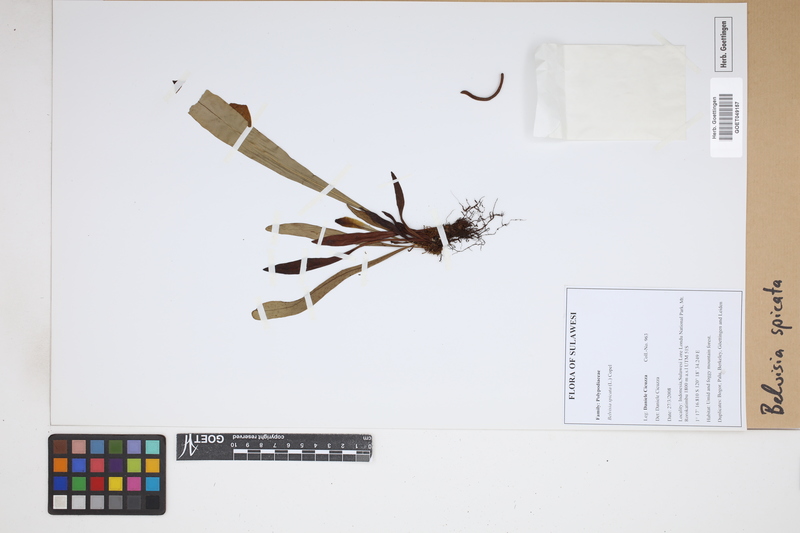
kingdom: Plantae
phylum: Tracheophyta
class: Polypodiopsida
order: Polypodiales
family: Polypodiaceae
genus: Lepisorus
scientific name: Lepisorus spicatus
